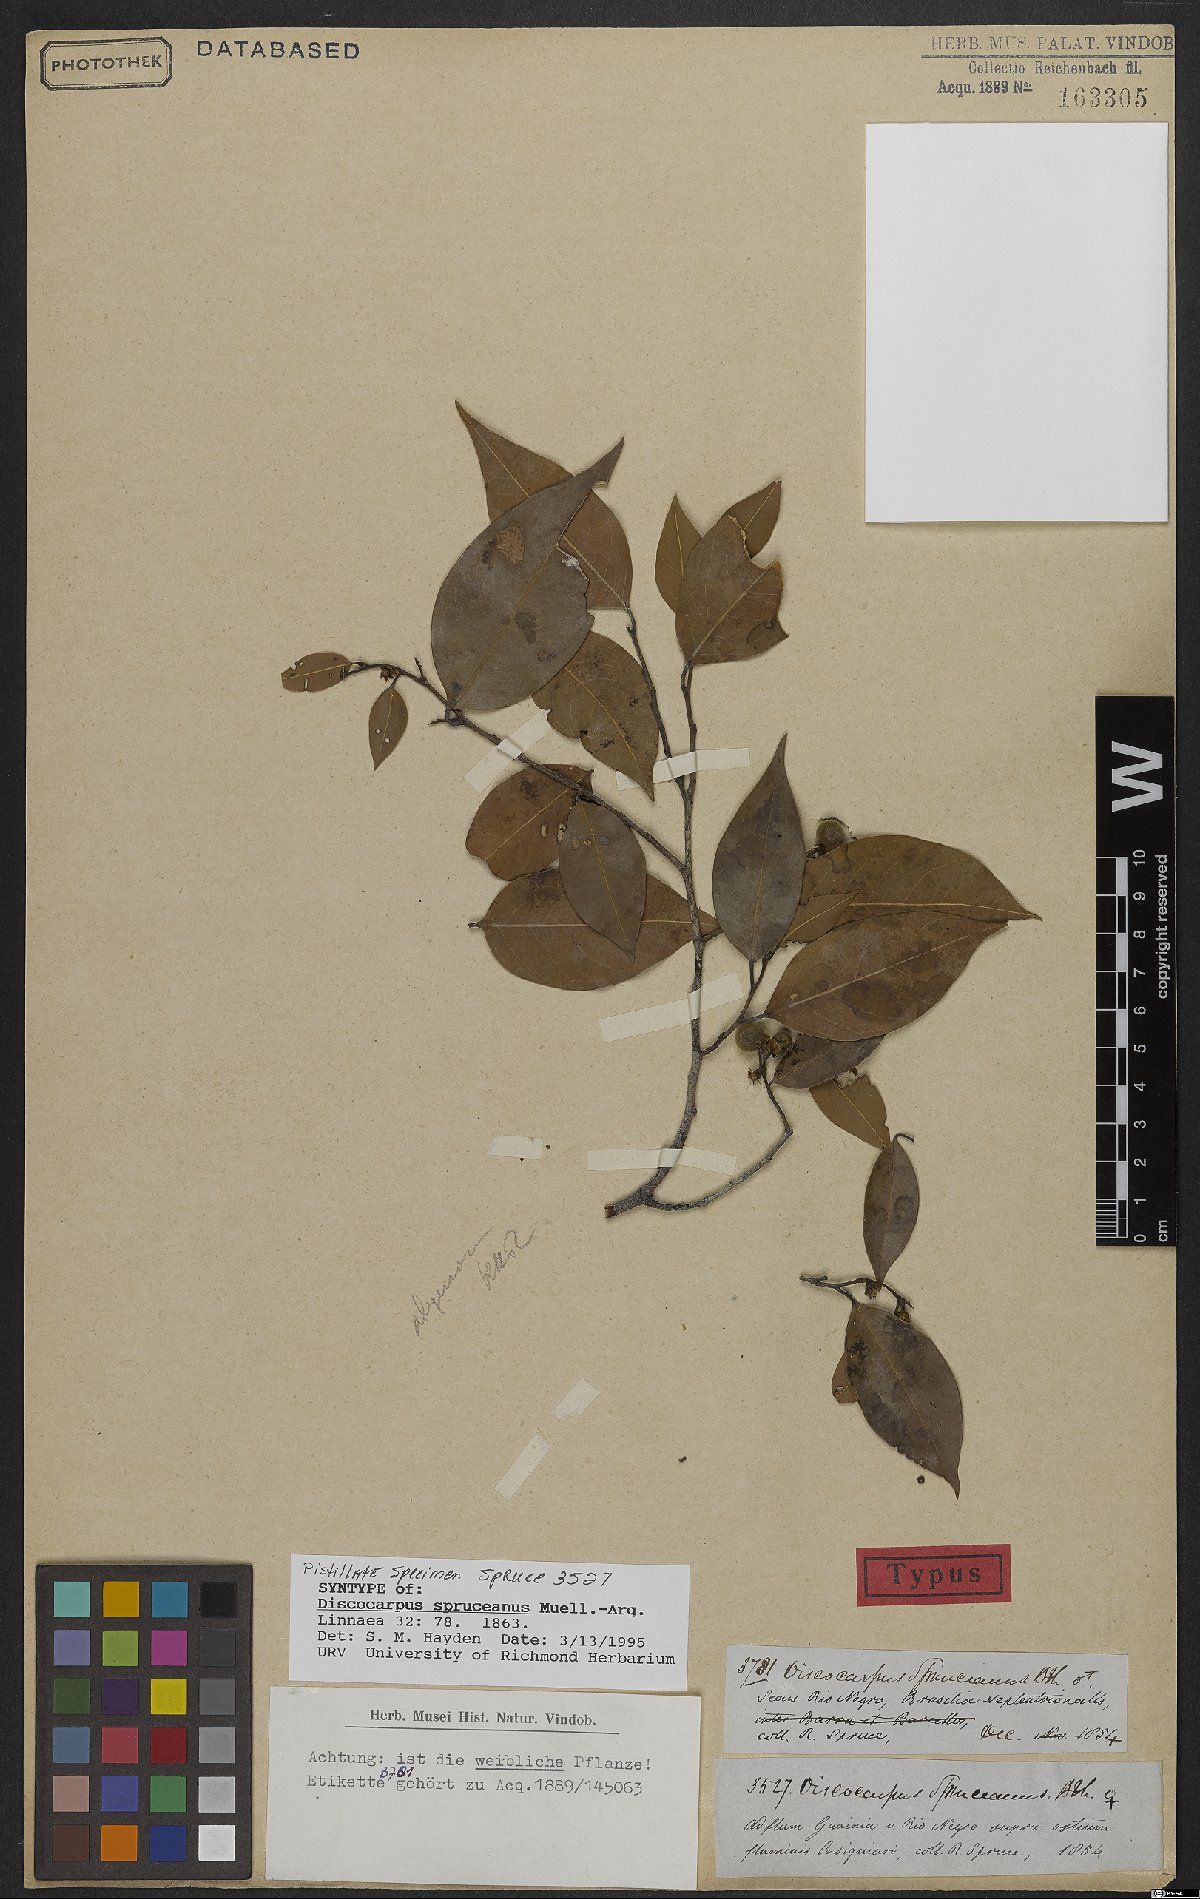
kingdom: Plantae
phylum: Tracheophyta
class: Magnoliopsida
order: Malpighiales
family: Phyllanthaceae
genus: Discocarpus
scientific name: Discocarpus spruceanus
